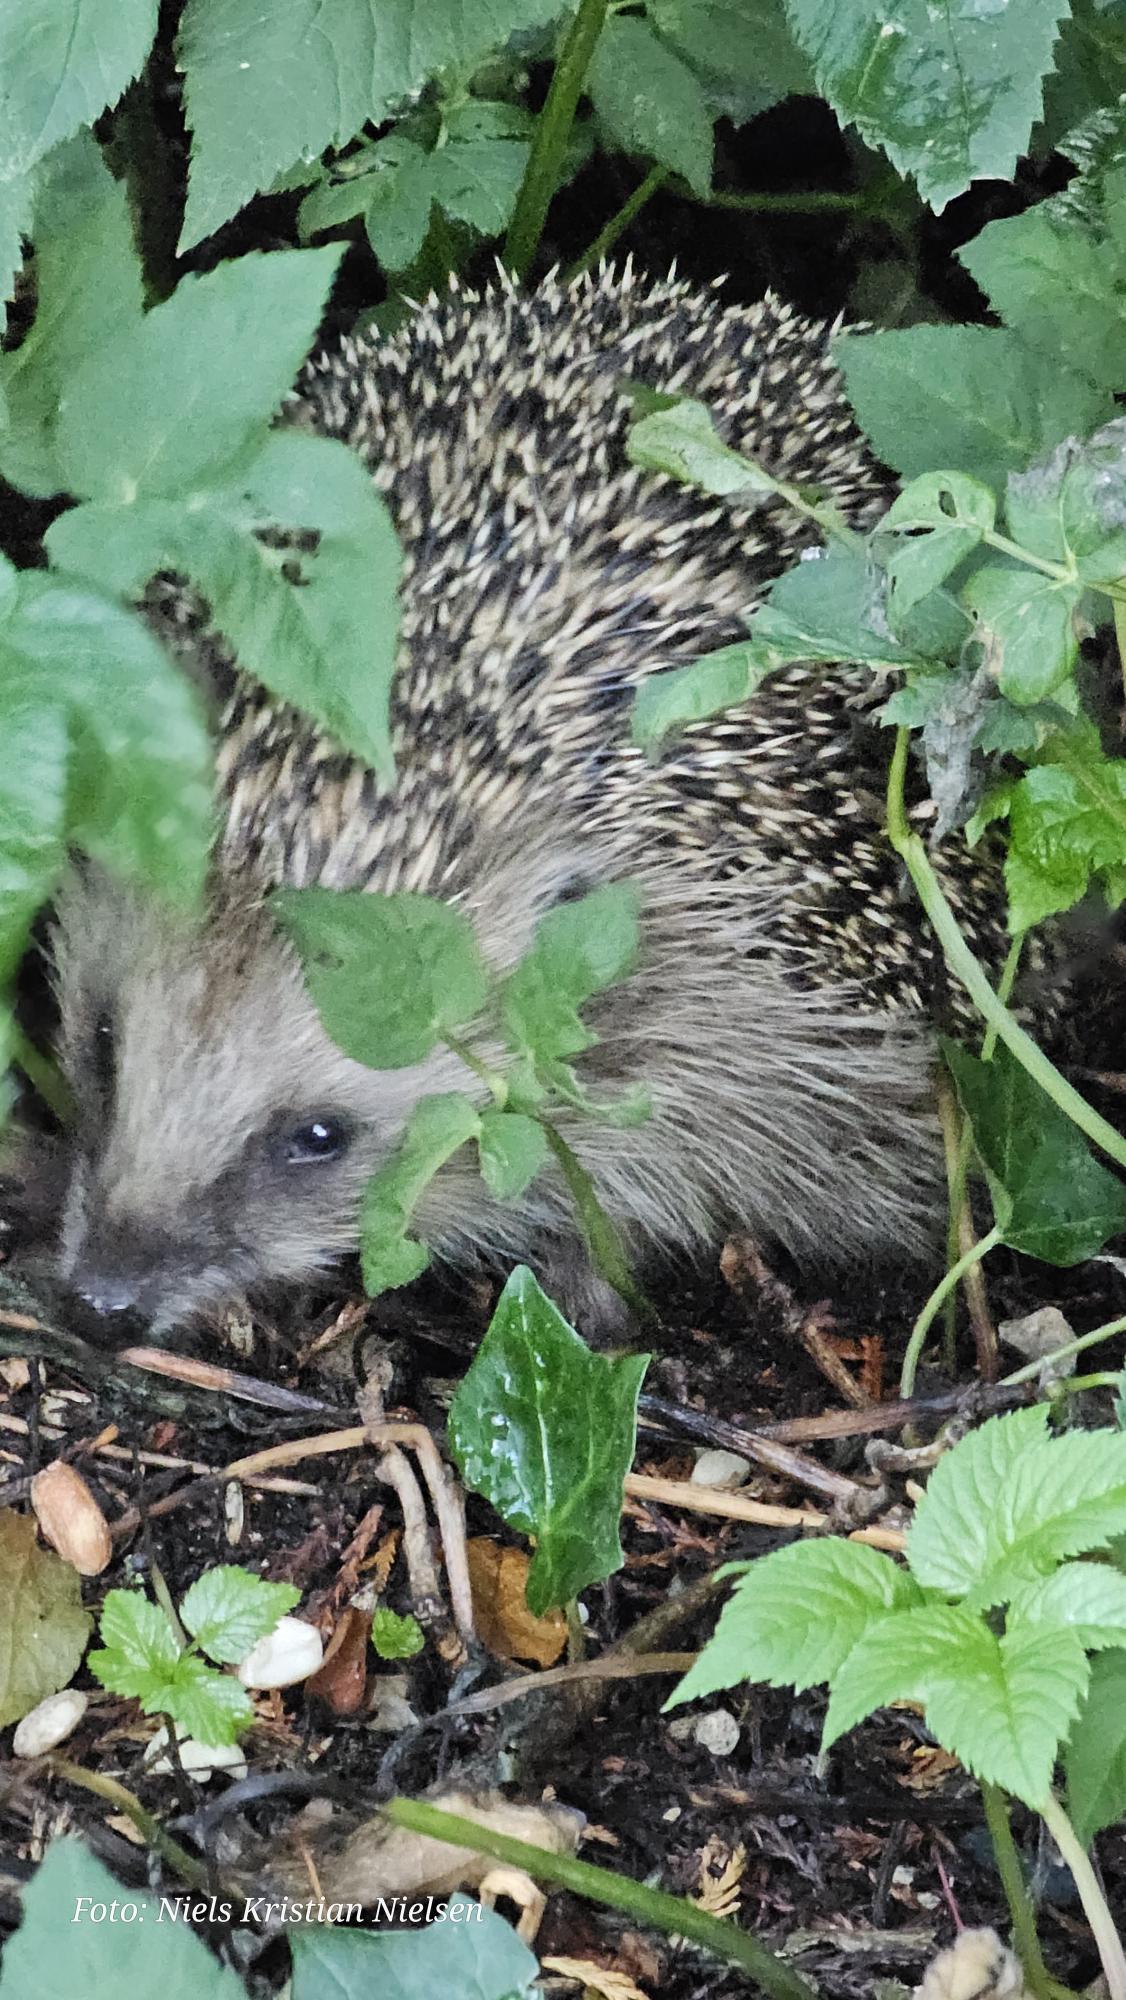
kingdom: Animalia
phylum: Chordata
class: Mammalia
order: Erinaceomorpha
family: Erinaceidae
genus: Erinaceus
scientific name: Erinaceus europaeus
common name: Pindsvin
